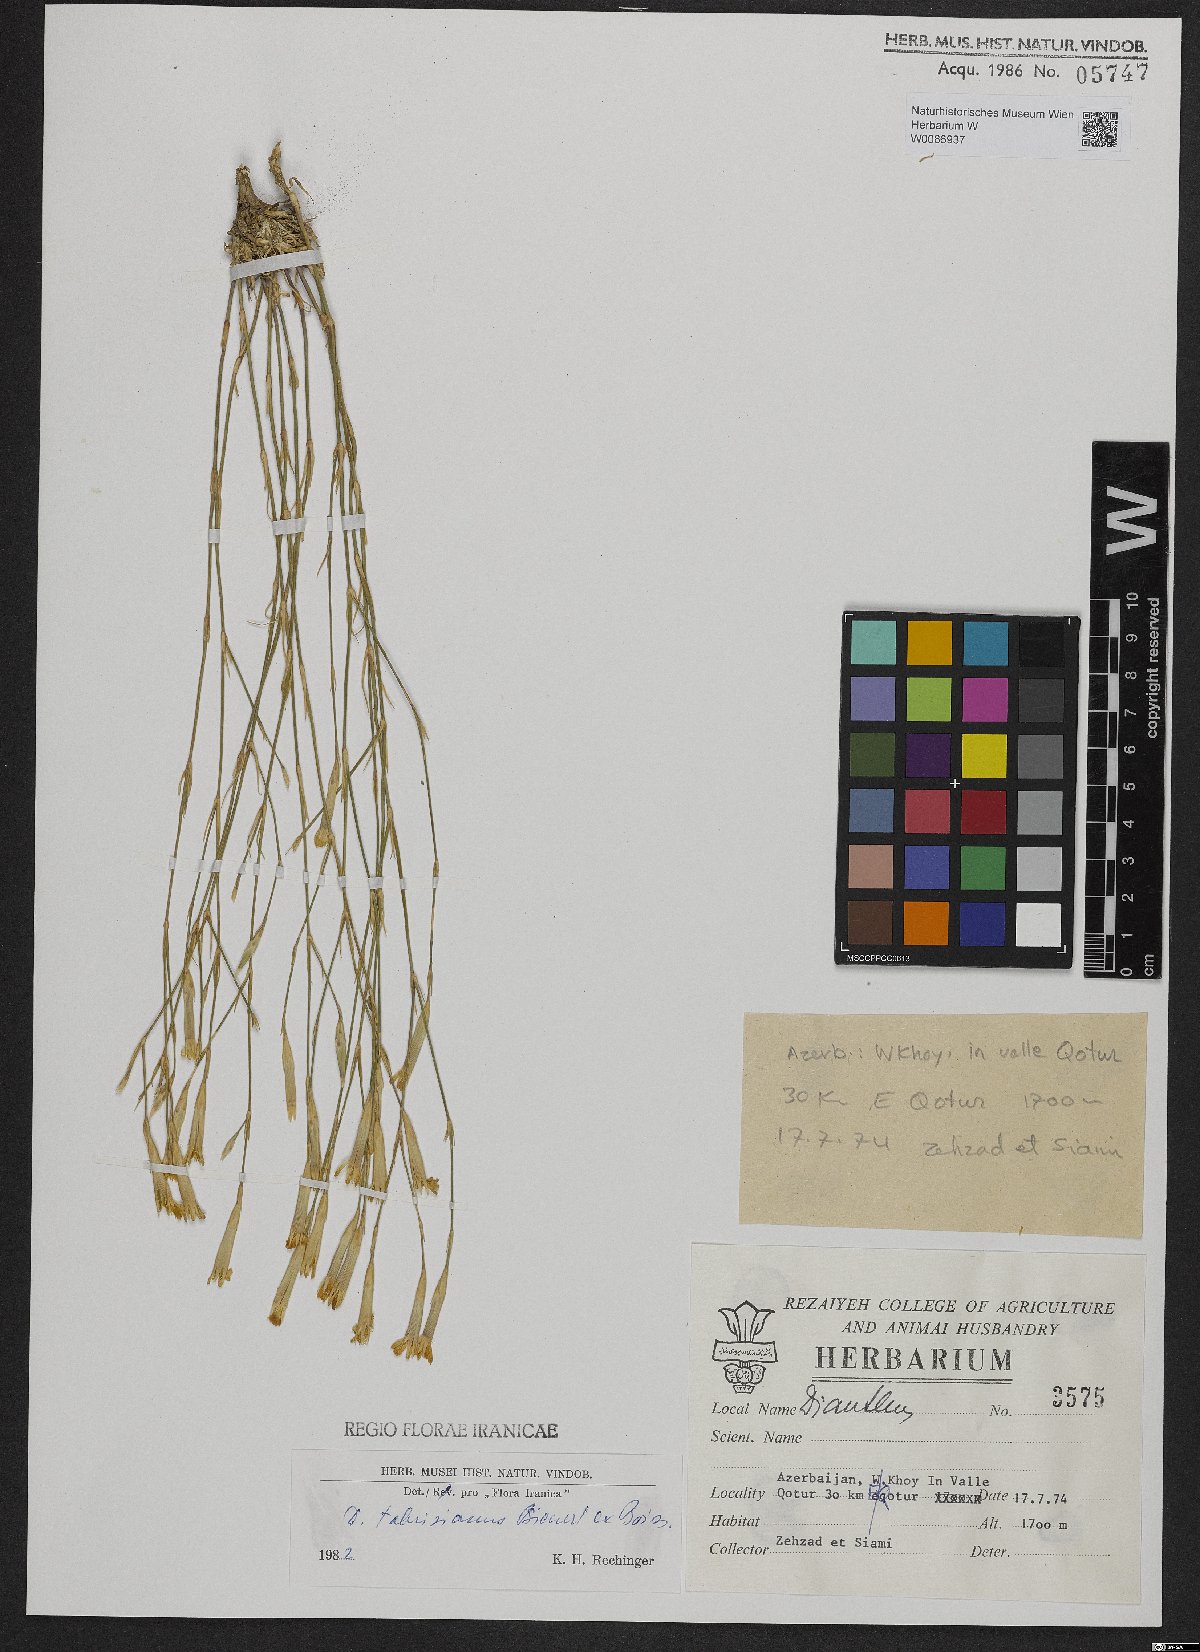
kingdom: Plantae
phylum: Tracheophyta
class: Magnoliopsida
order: Caryophyllales
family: Caryophyllaceae
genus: Dianthus
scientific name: Dianthus tabrisianus
